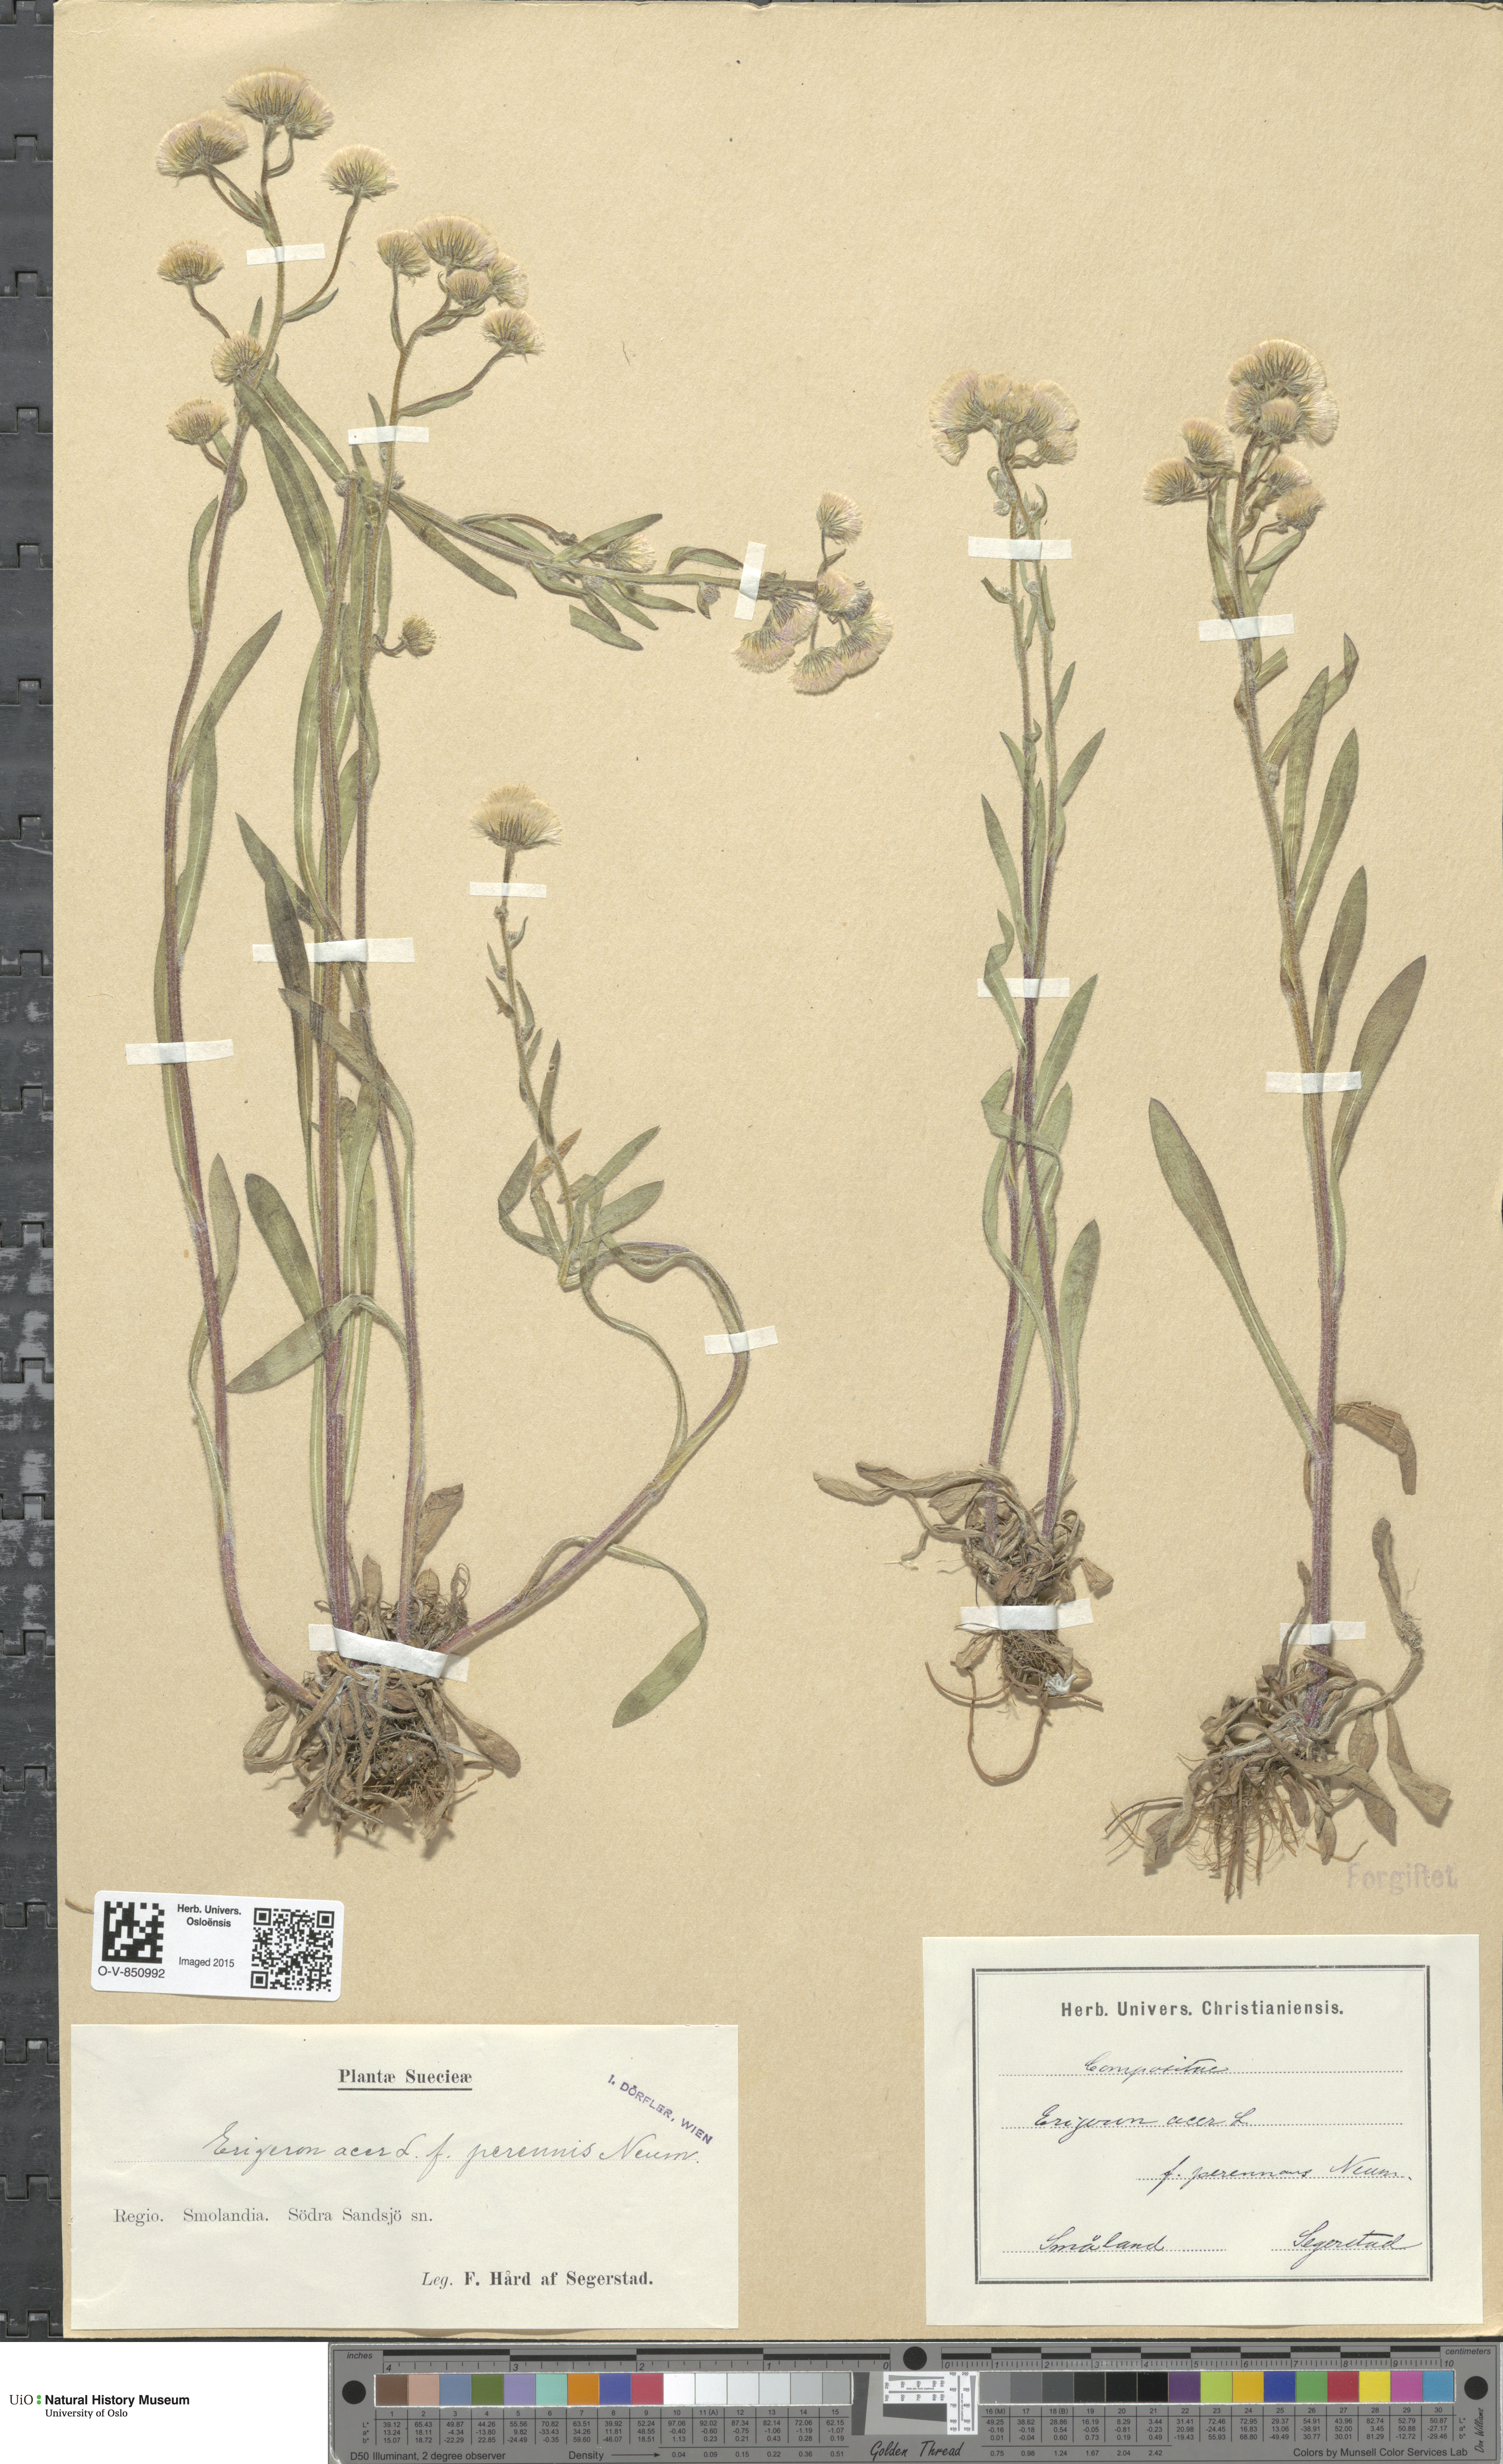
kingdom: Plantae
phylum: Tracheophyta
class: Magnoliopsida
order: Asterales
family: Asteraceae
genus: Erigeron
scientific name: Erigeron acris
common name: Blue fleabane
